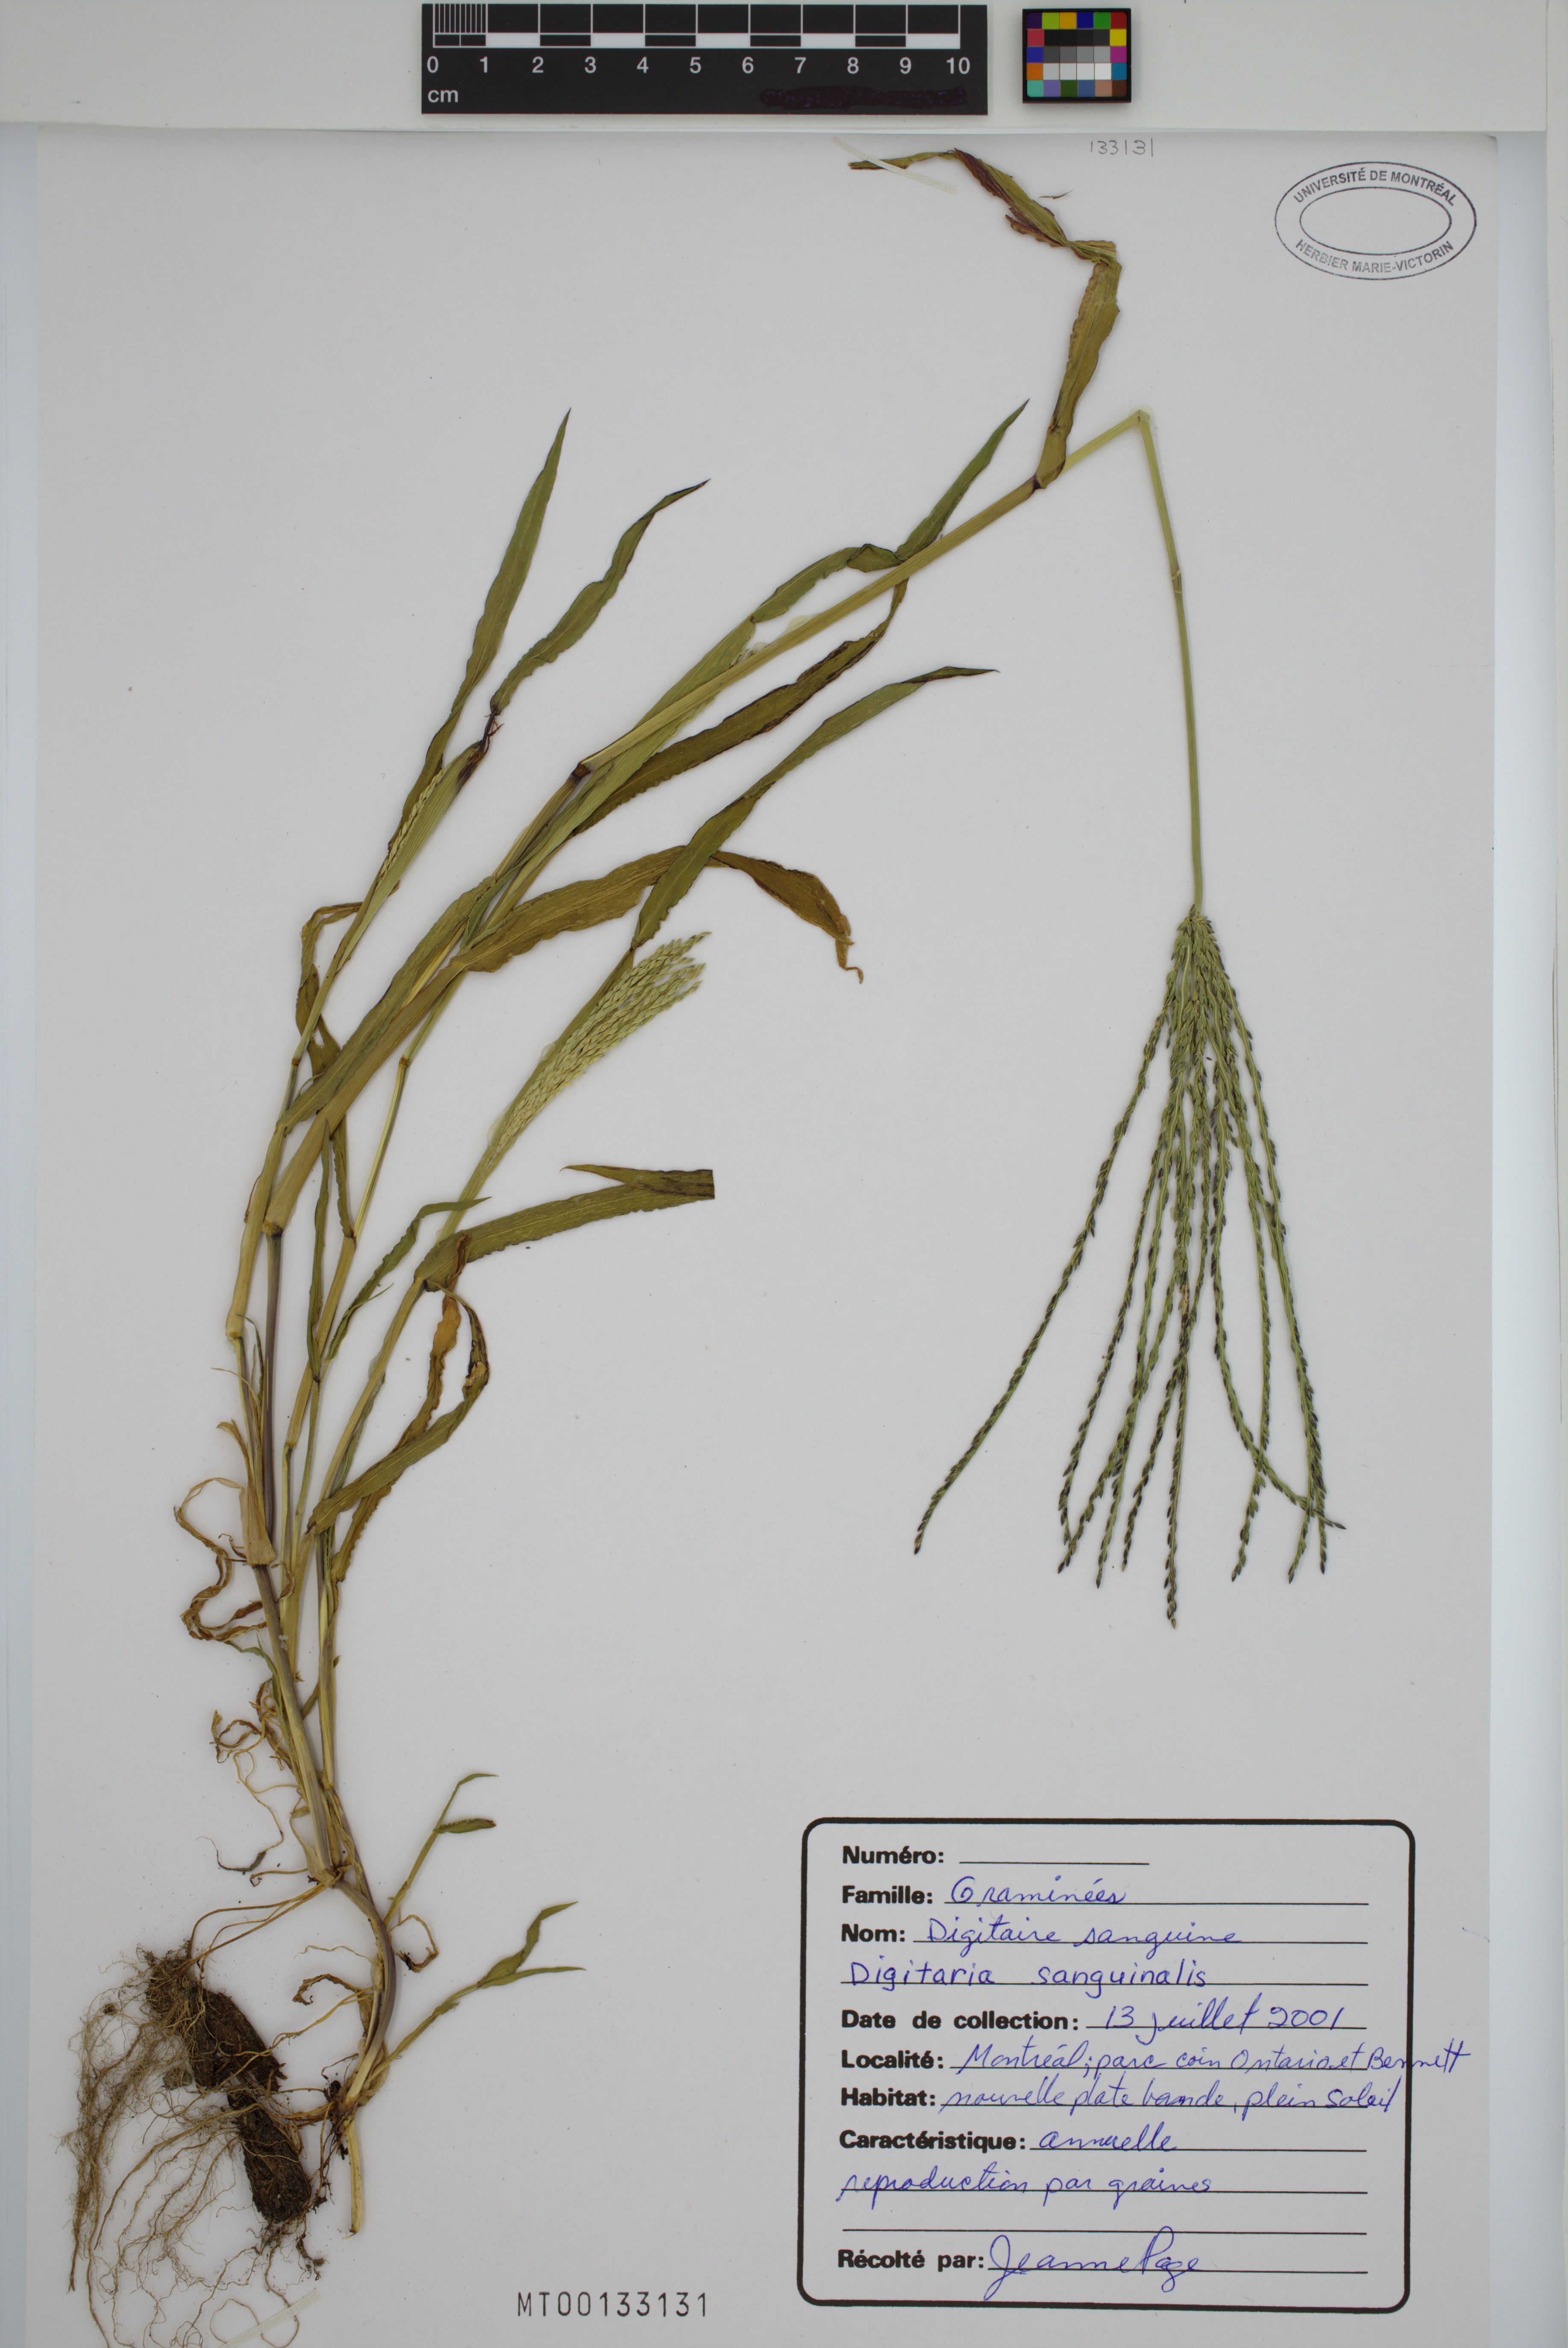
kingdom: Plantae
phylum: Tracheophyta
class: Liliopsida
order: Poales
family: Poaceae
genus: Digitaria
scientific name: Digitaria sanguinalis
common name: Hairy crabgrass
